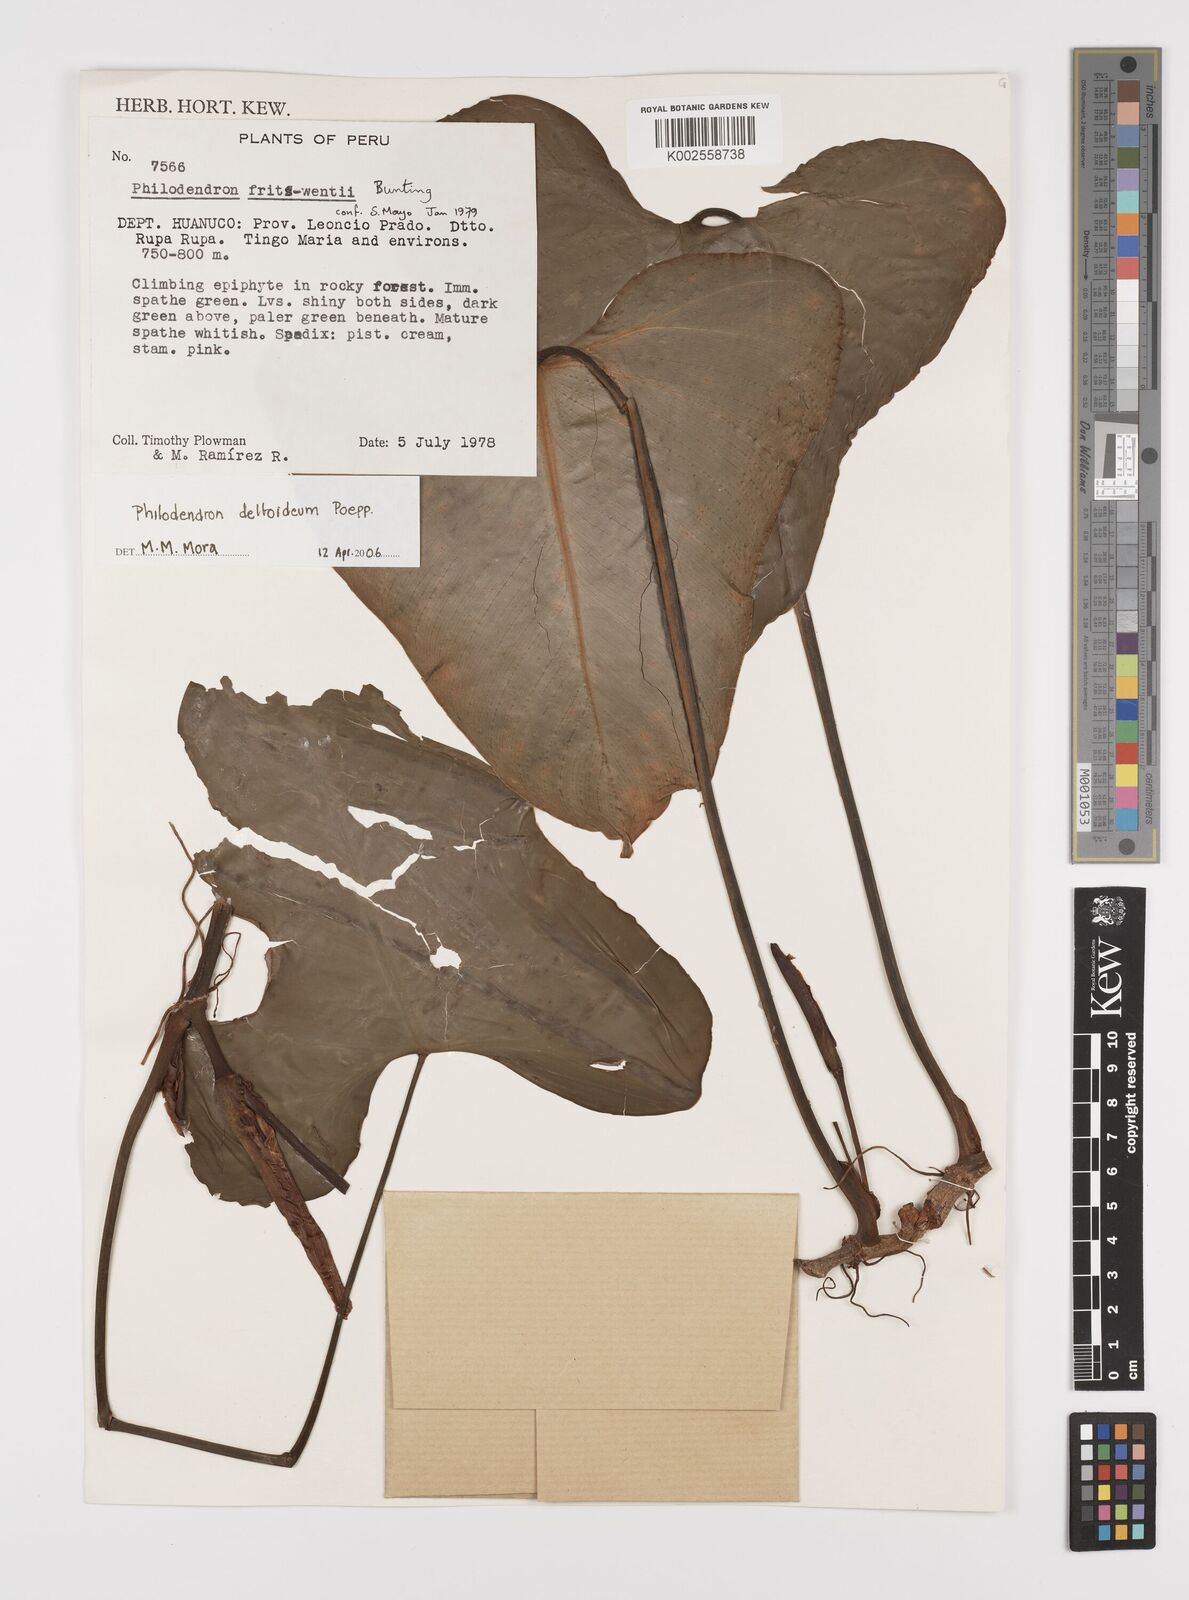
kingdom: Plantae
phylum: Tracheophyta
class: Liliopsida
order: Alismatales
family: Araceae
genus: Philodendron
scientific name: Philodendron deltoideum
